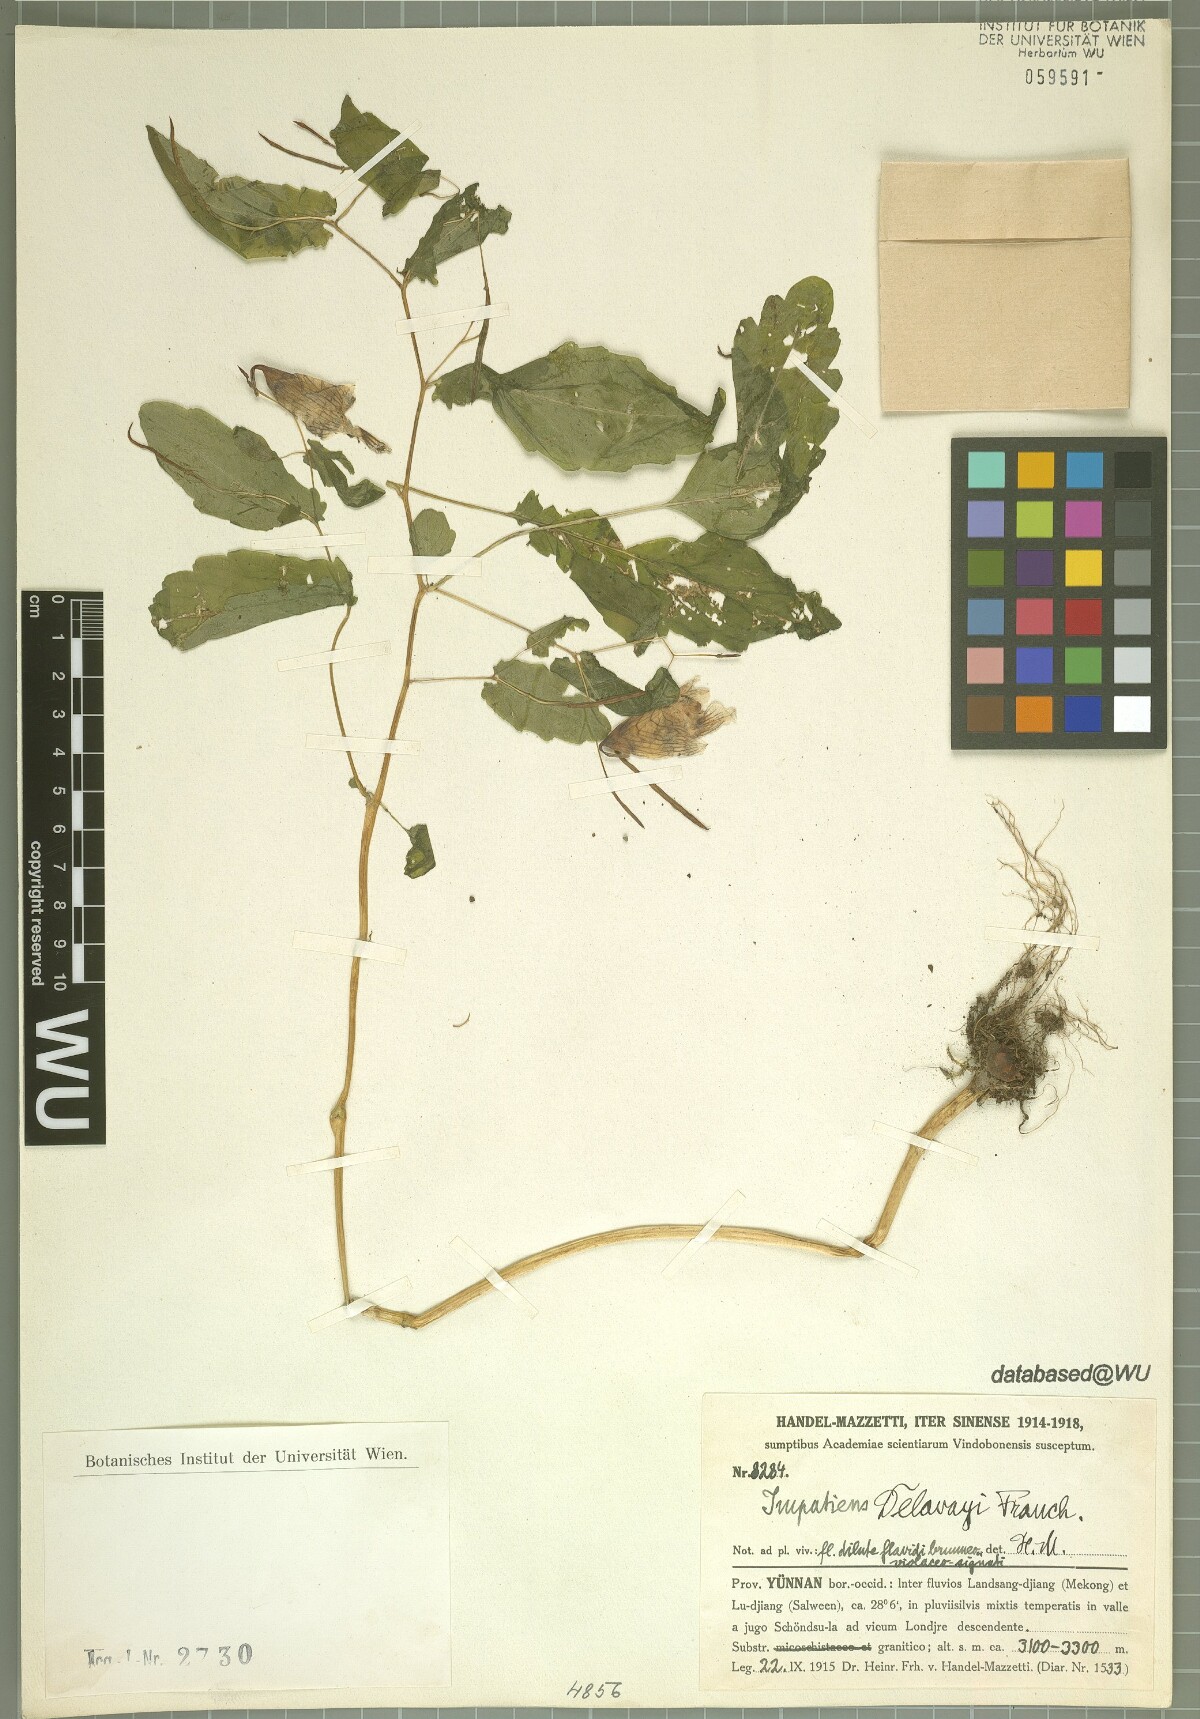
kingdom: Plantae
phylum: Tracheophyta
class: Magnoliopsida
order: Ericales
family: Balsaminaceae
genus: Impatiens
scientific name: Impatiens delavayi
